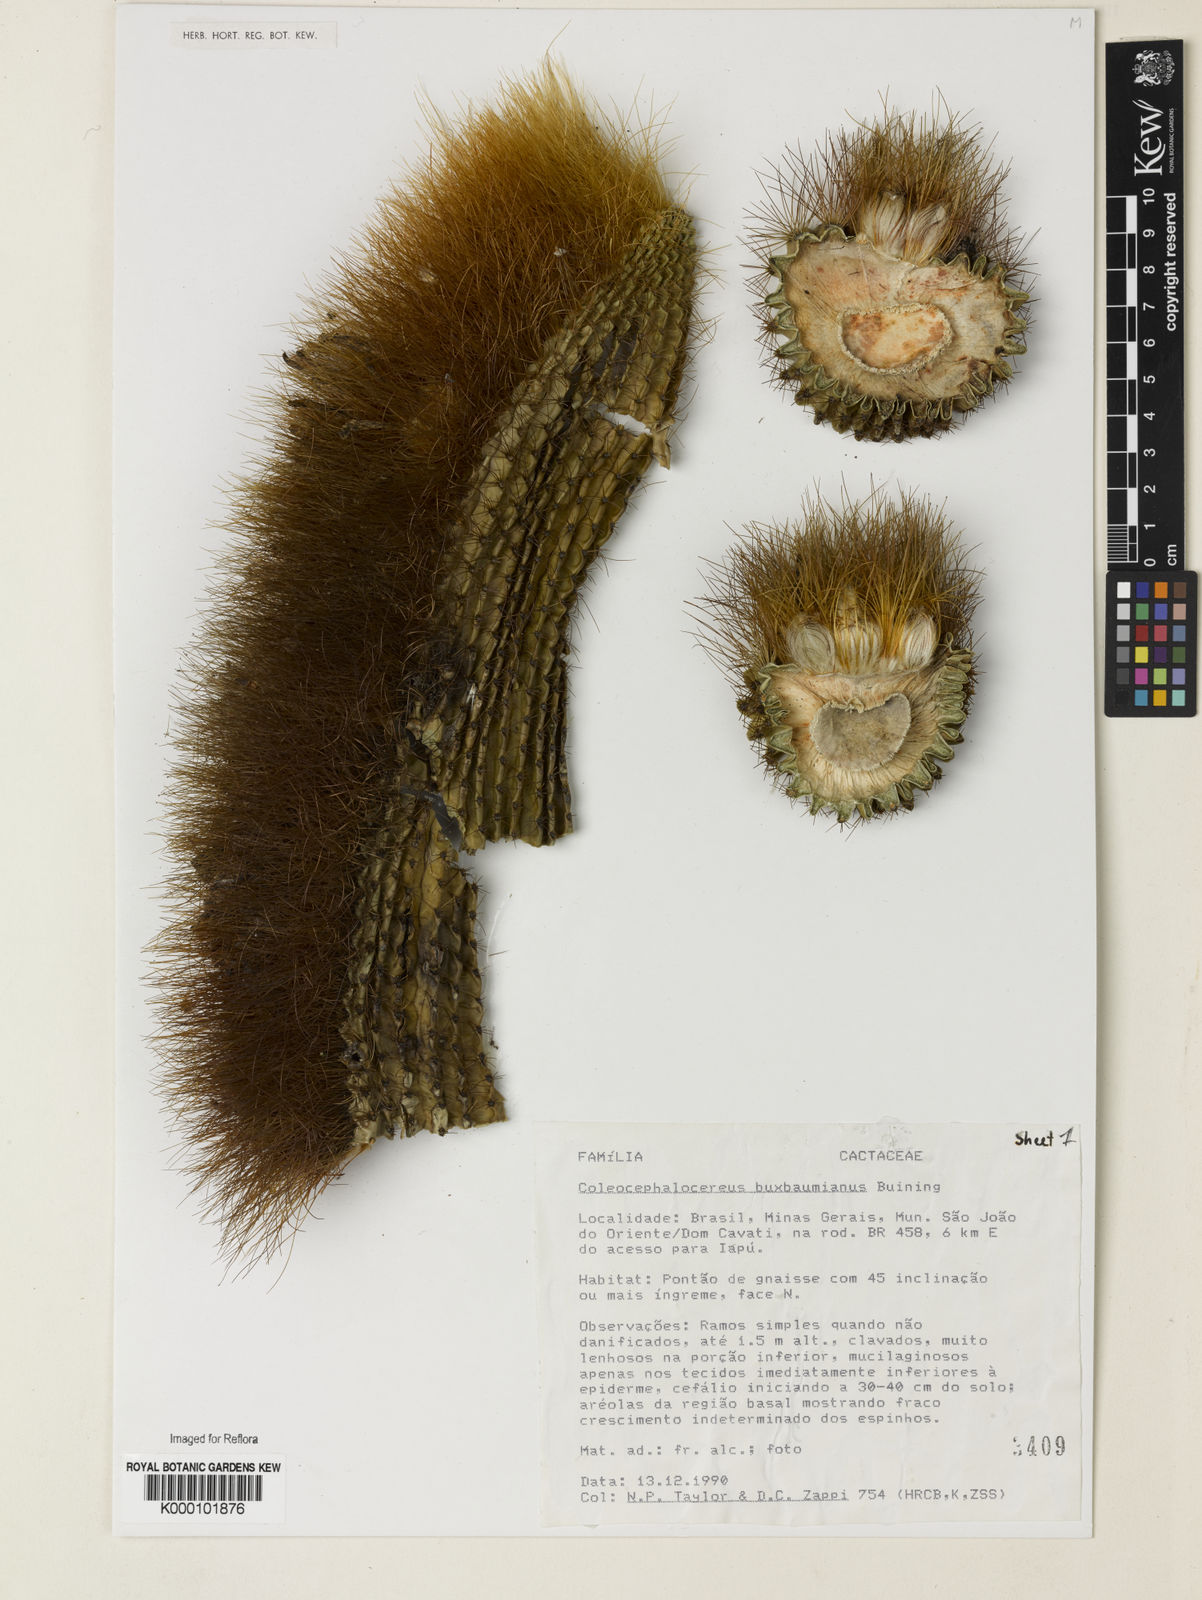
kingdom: Plantae
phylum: Tracheophyta
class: Magnoliopsida
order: Caryophyllales
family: Cactaceae
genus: Coleocephalocereus
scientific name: Coleocephalocereus buxbaumianus
